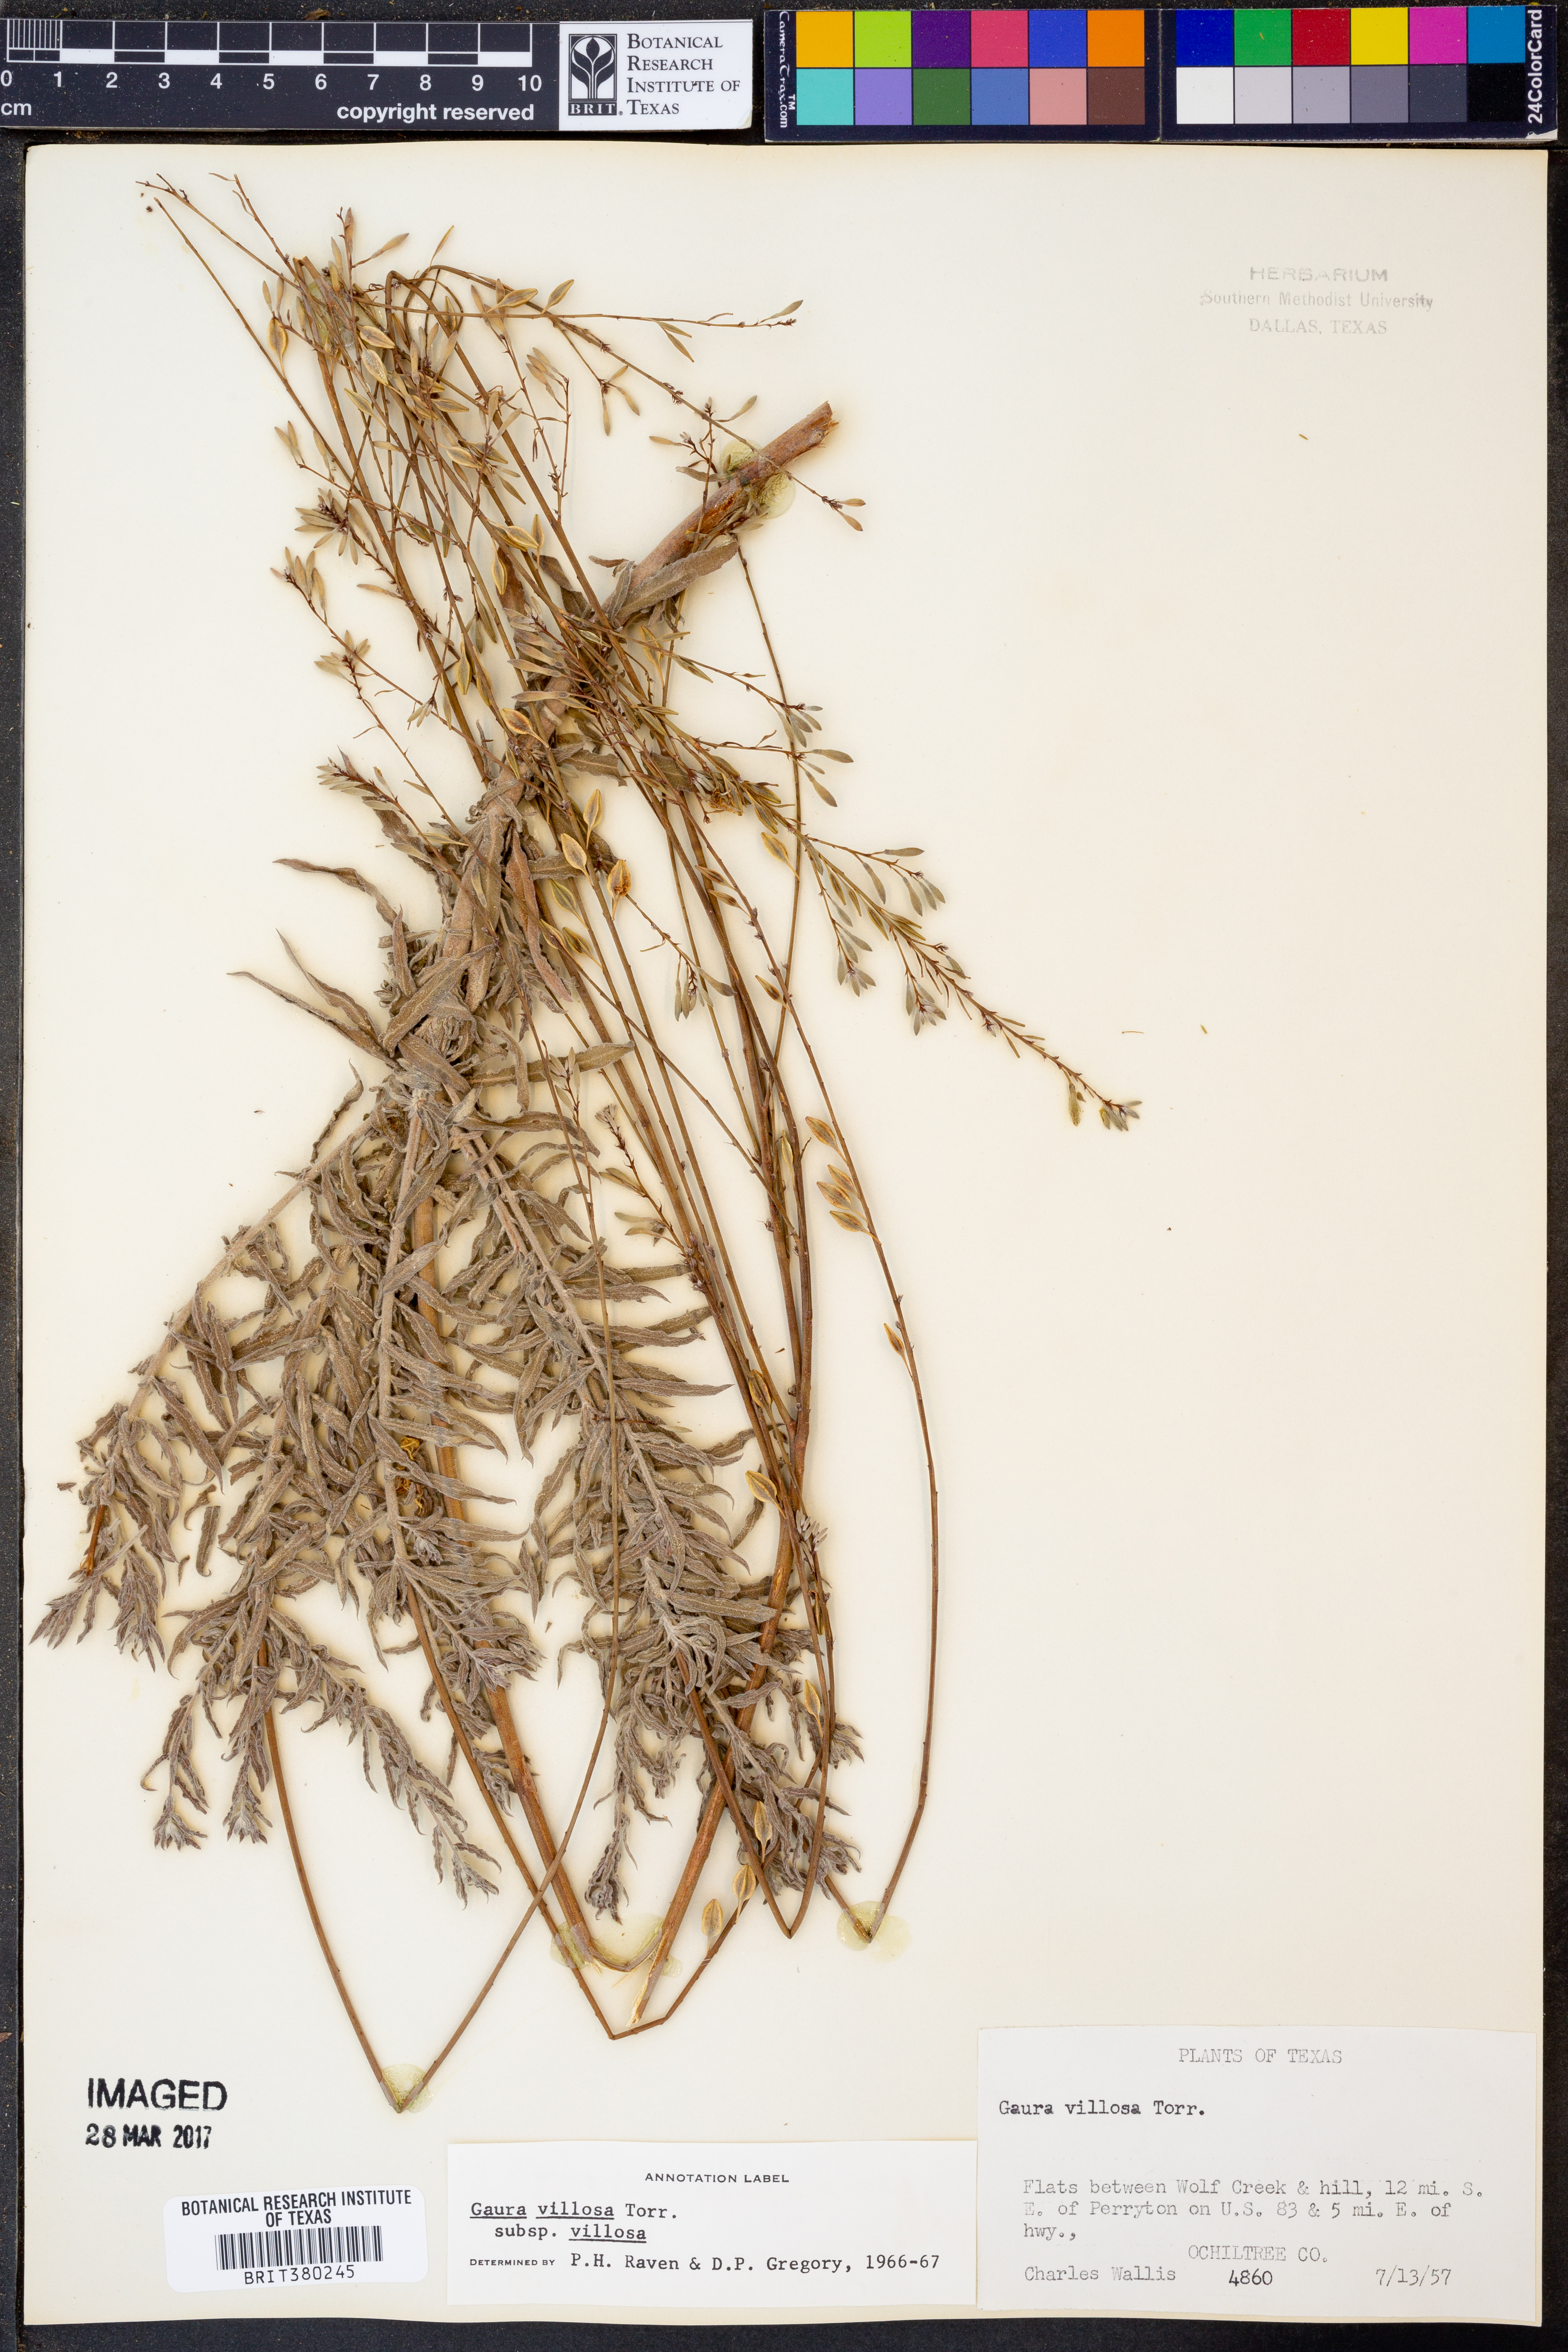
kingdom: Plantae
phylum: Tracheophyta
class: Magnoliopsida
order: Myrtales
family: Onagraceae
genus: Oenothera
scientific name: Oenothera cinerea
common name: Woolly beeblossom
